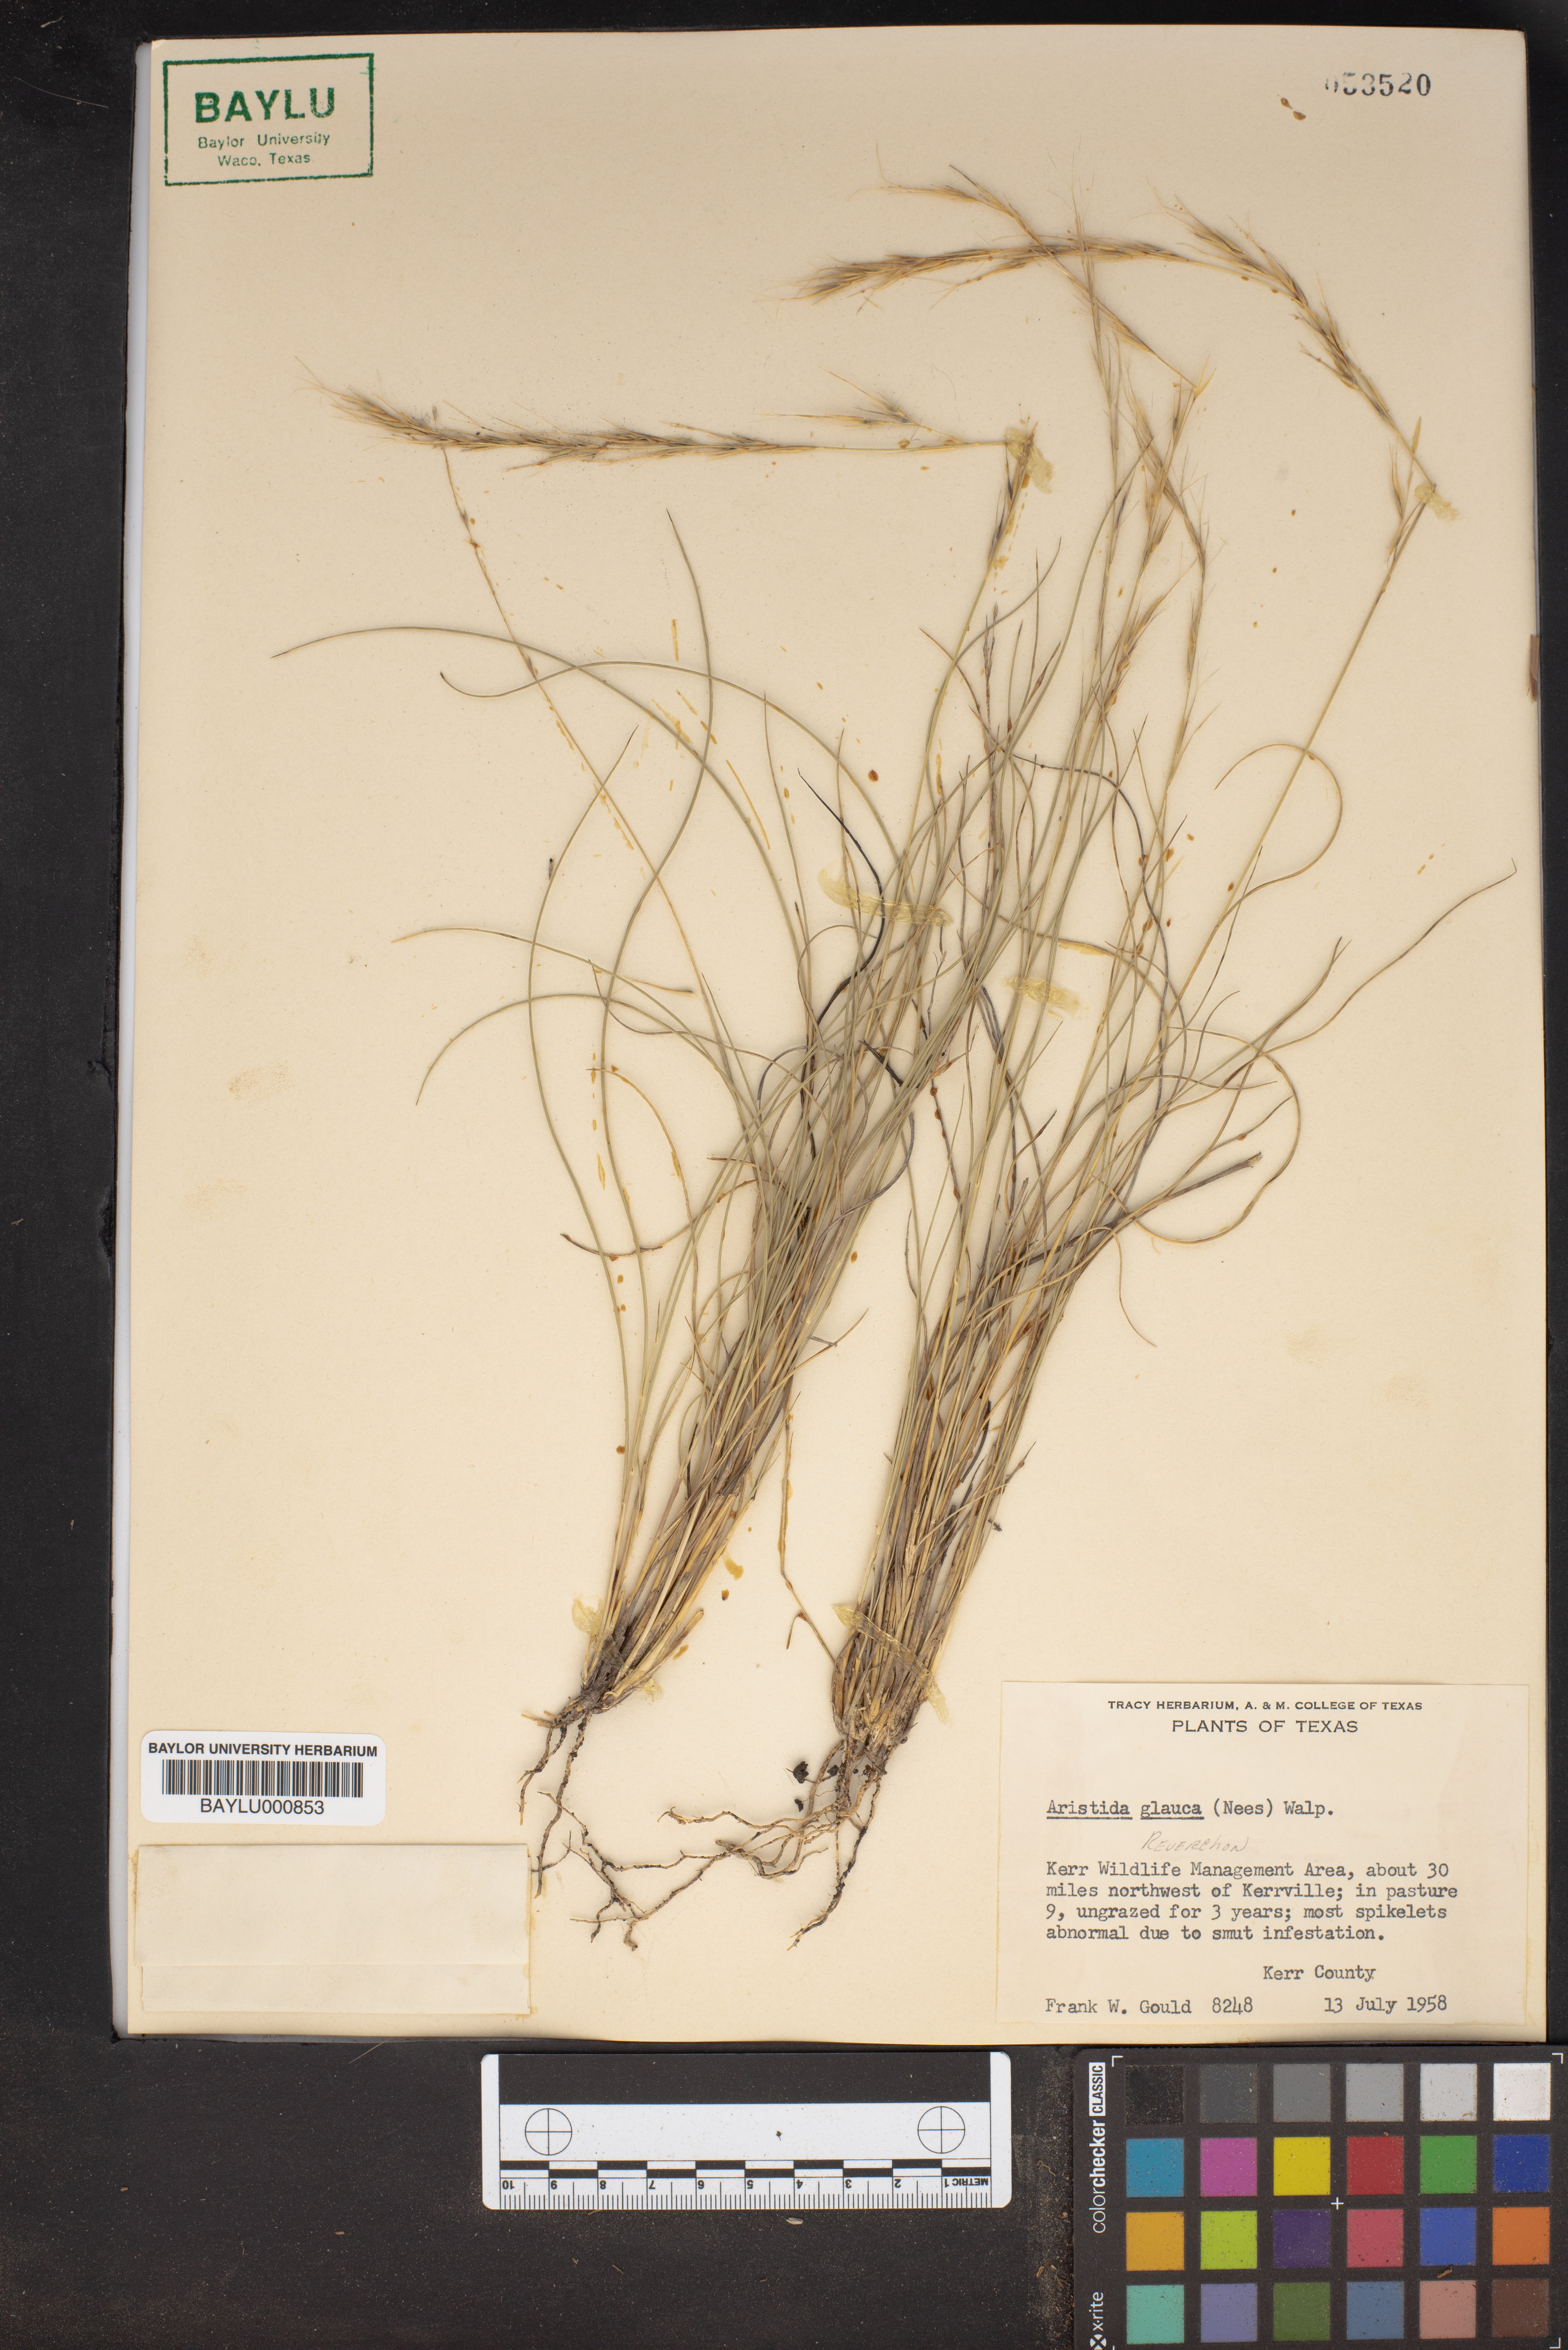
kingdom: Plantae
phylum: Tracheophyta
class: Liliopsida
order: Poales
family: Poaceae
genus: Aristida
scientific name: Aristida glauca
